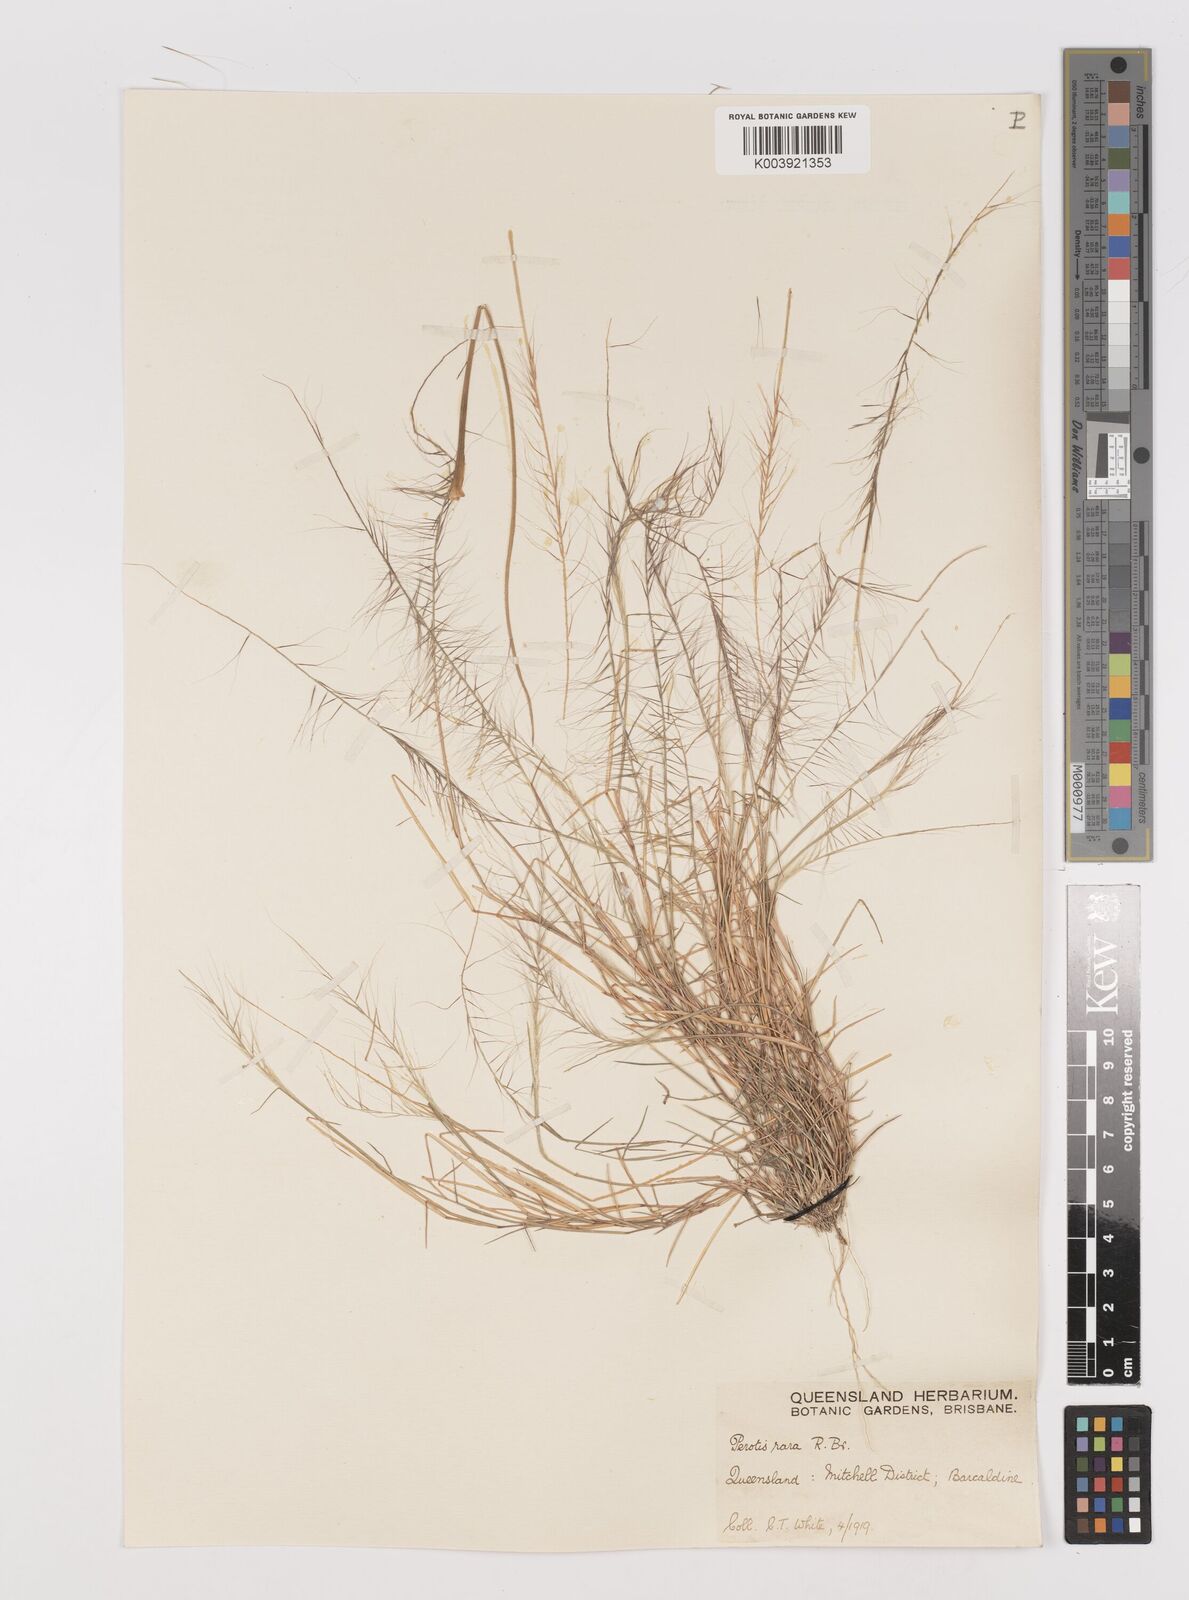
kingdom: Plantae
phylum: Tracheophyta
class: Liliopsida
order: Poales
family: Poaceae
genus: Perotis
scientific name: Perotis rara
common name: Comet grass
